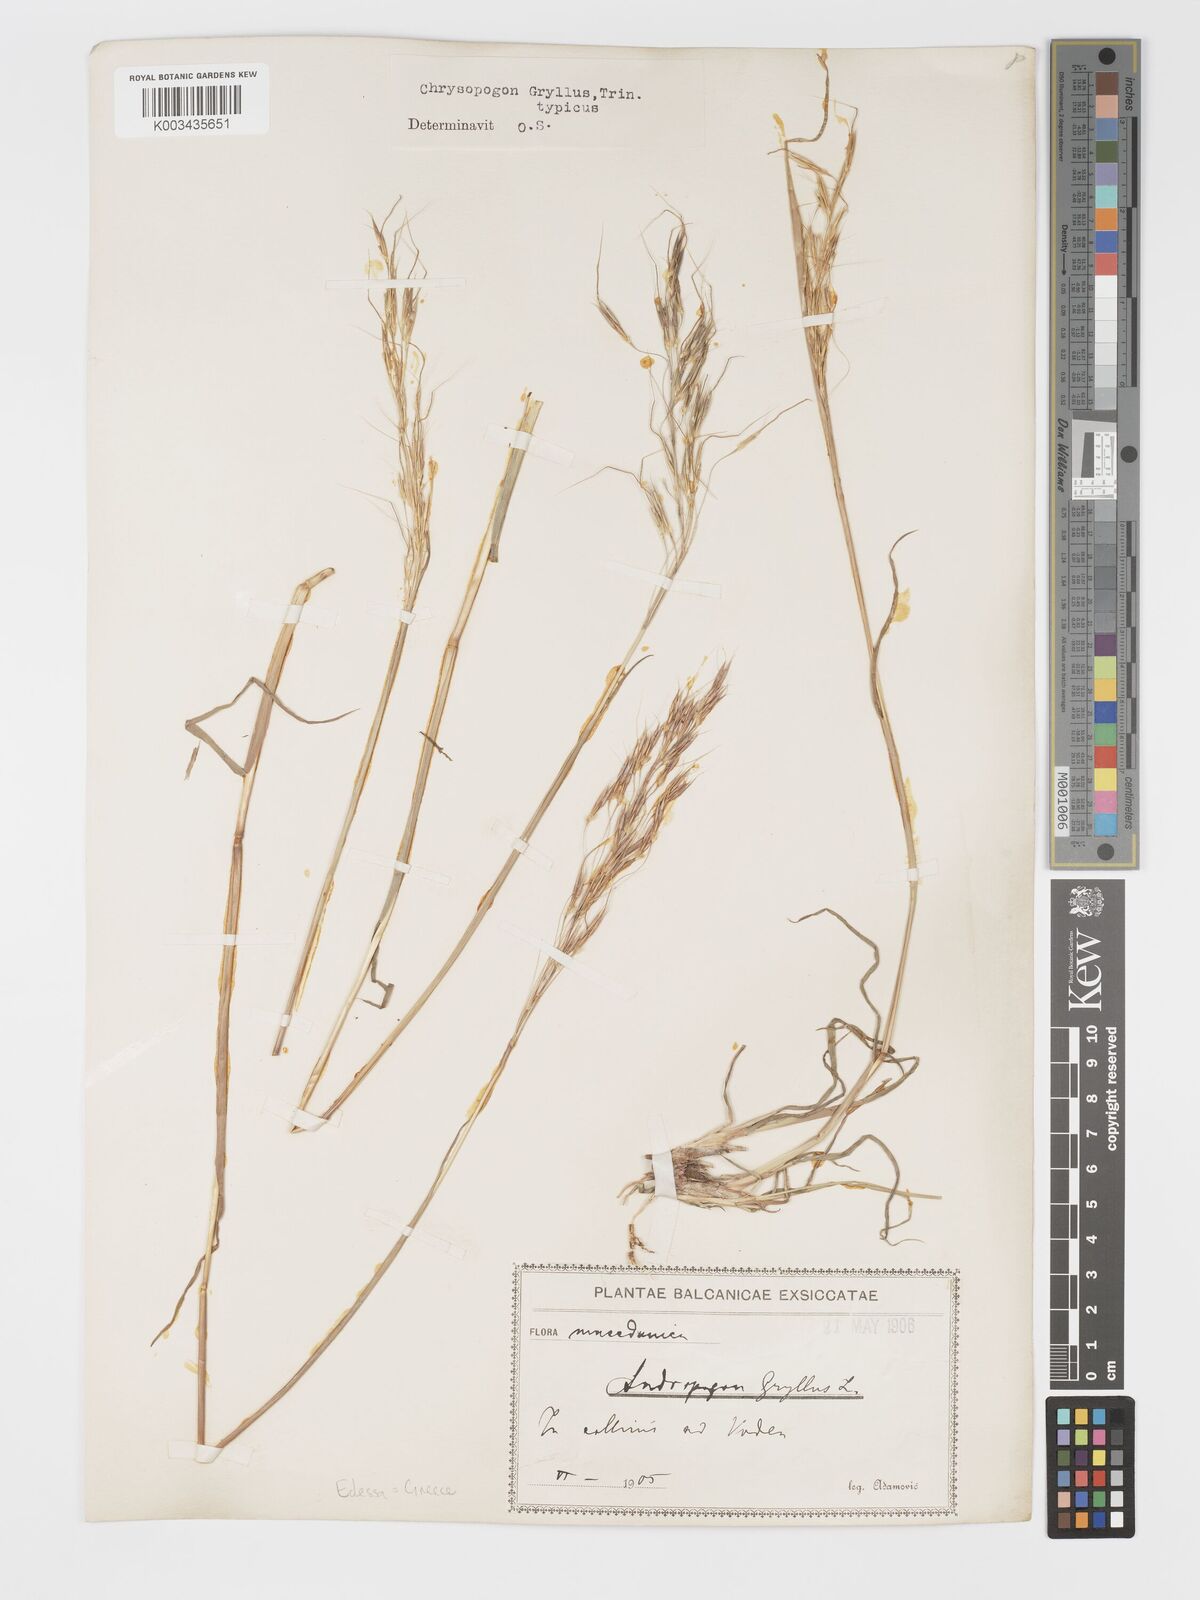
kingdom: Plantae
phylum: Tracheophyta
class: Liliopsida
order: Poales
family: Poaceae
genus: Chrysopogon
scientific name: Chrysopogon gryllus
